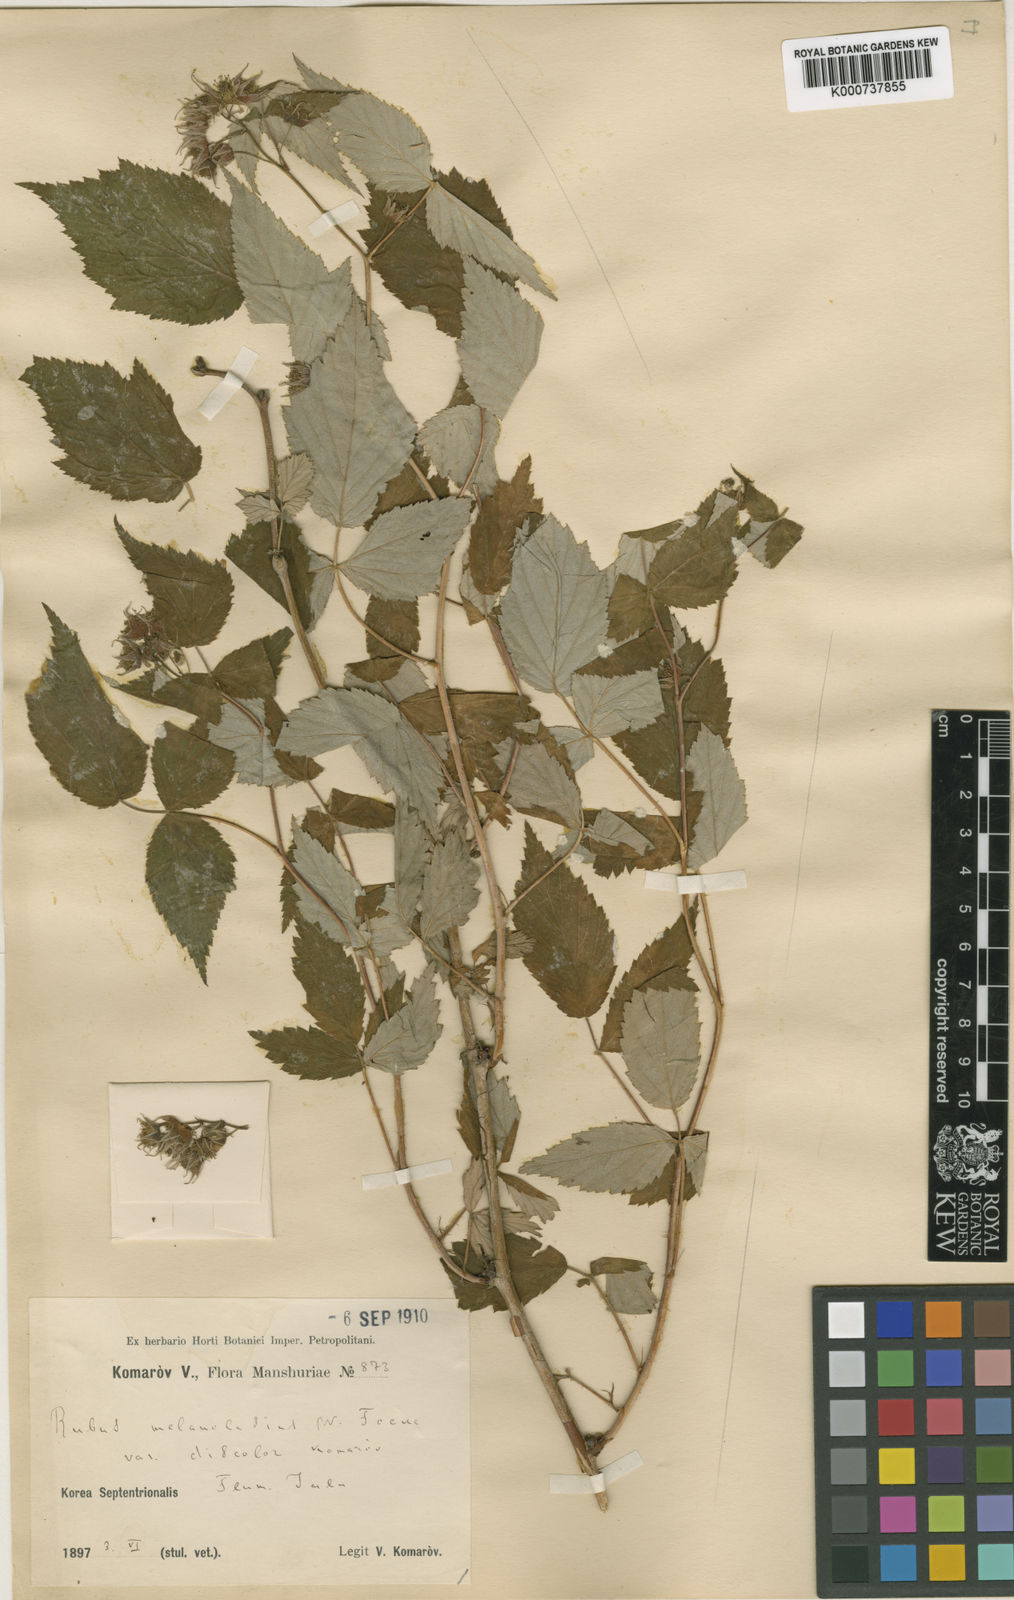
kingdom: Plantae
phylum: Tracheophyta
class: Magnoliopsida
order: Rosales
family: Rosaceae
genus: Rubus
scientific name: Rubus idaeus
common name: Raspberry
